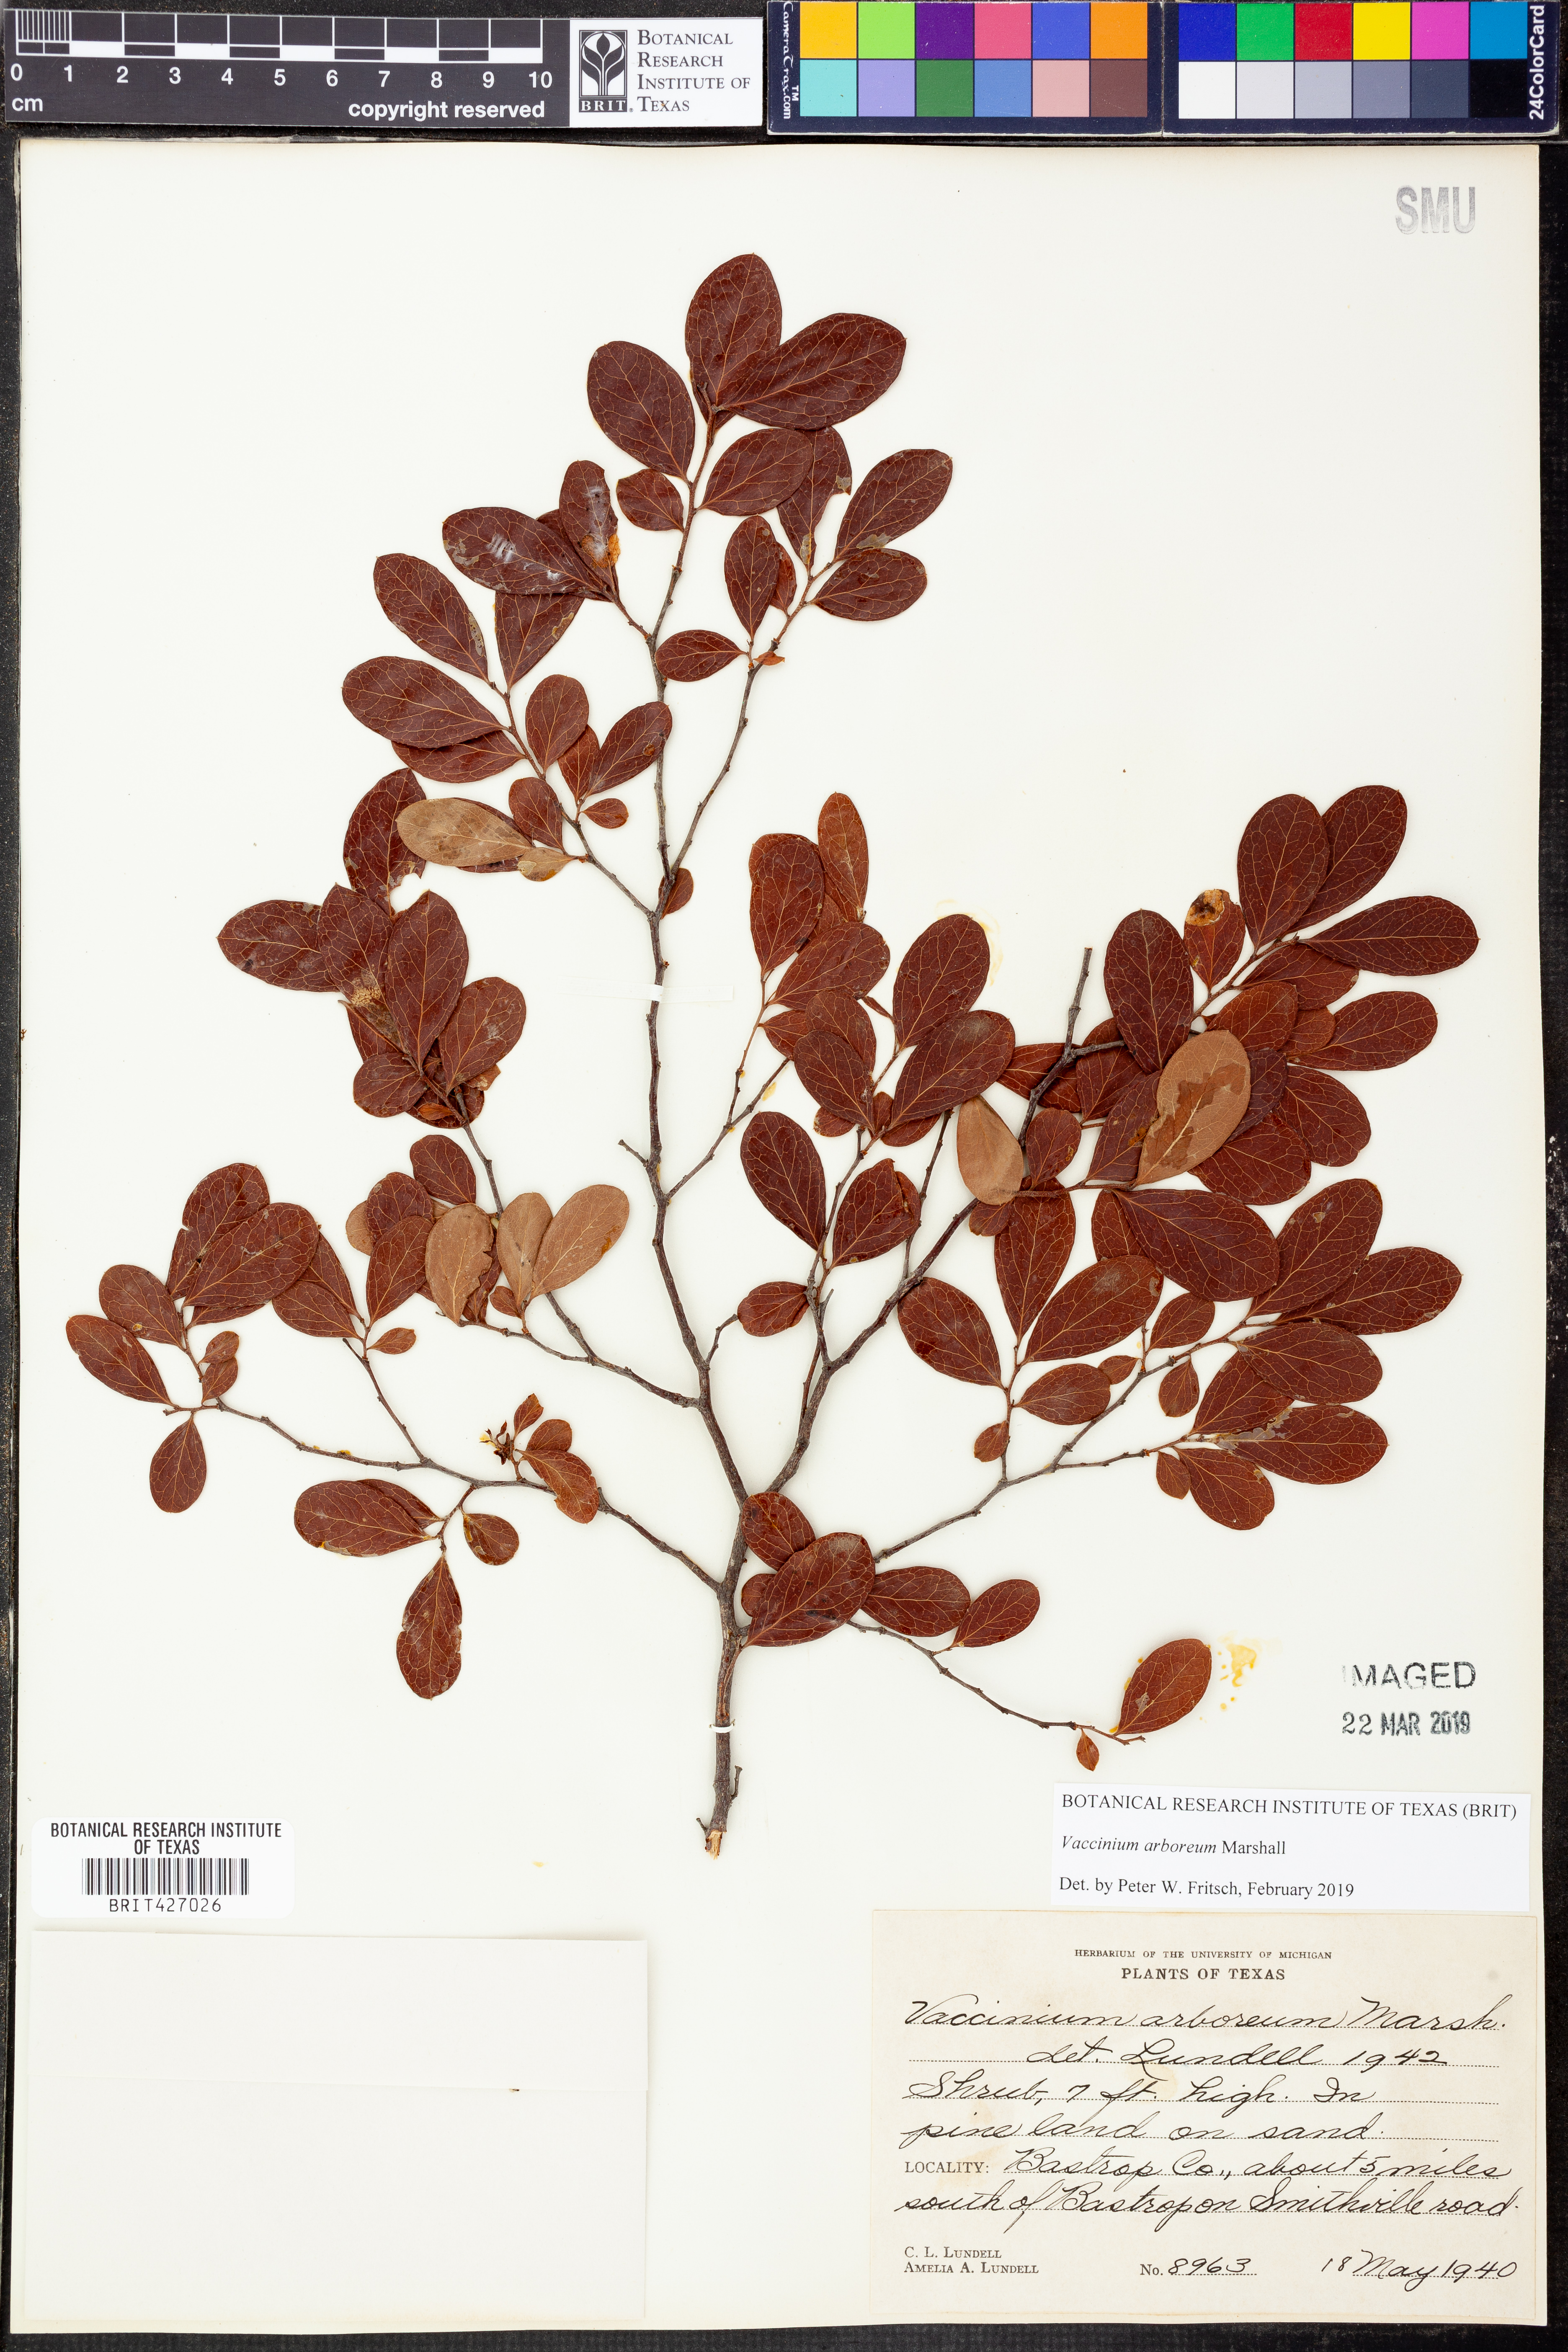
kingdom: Plantae
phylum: Tracheophyta
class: Magnoliopsida
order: Ericales
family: Ericaceae
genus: Vaccinium
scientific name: Vaccinium arboreum
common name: Farkleberry
